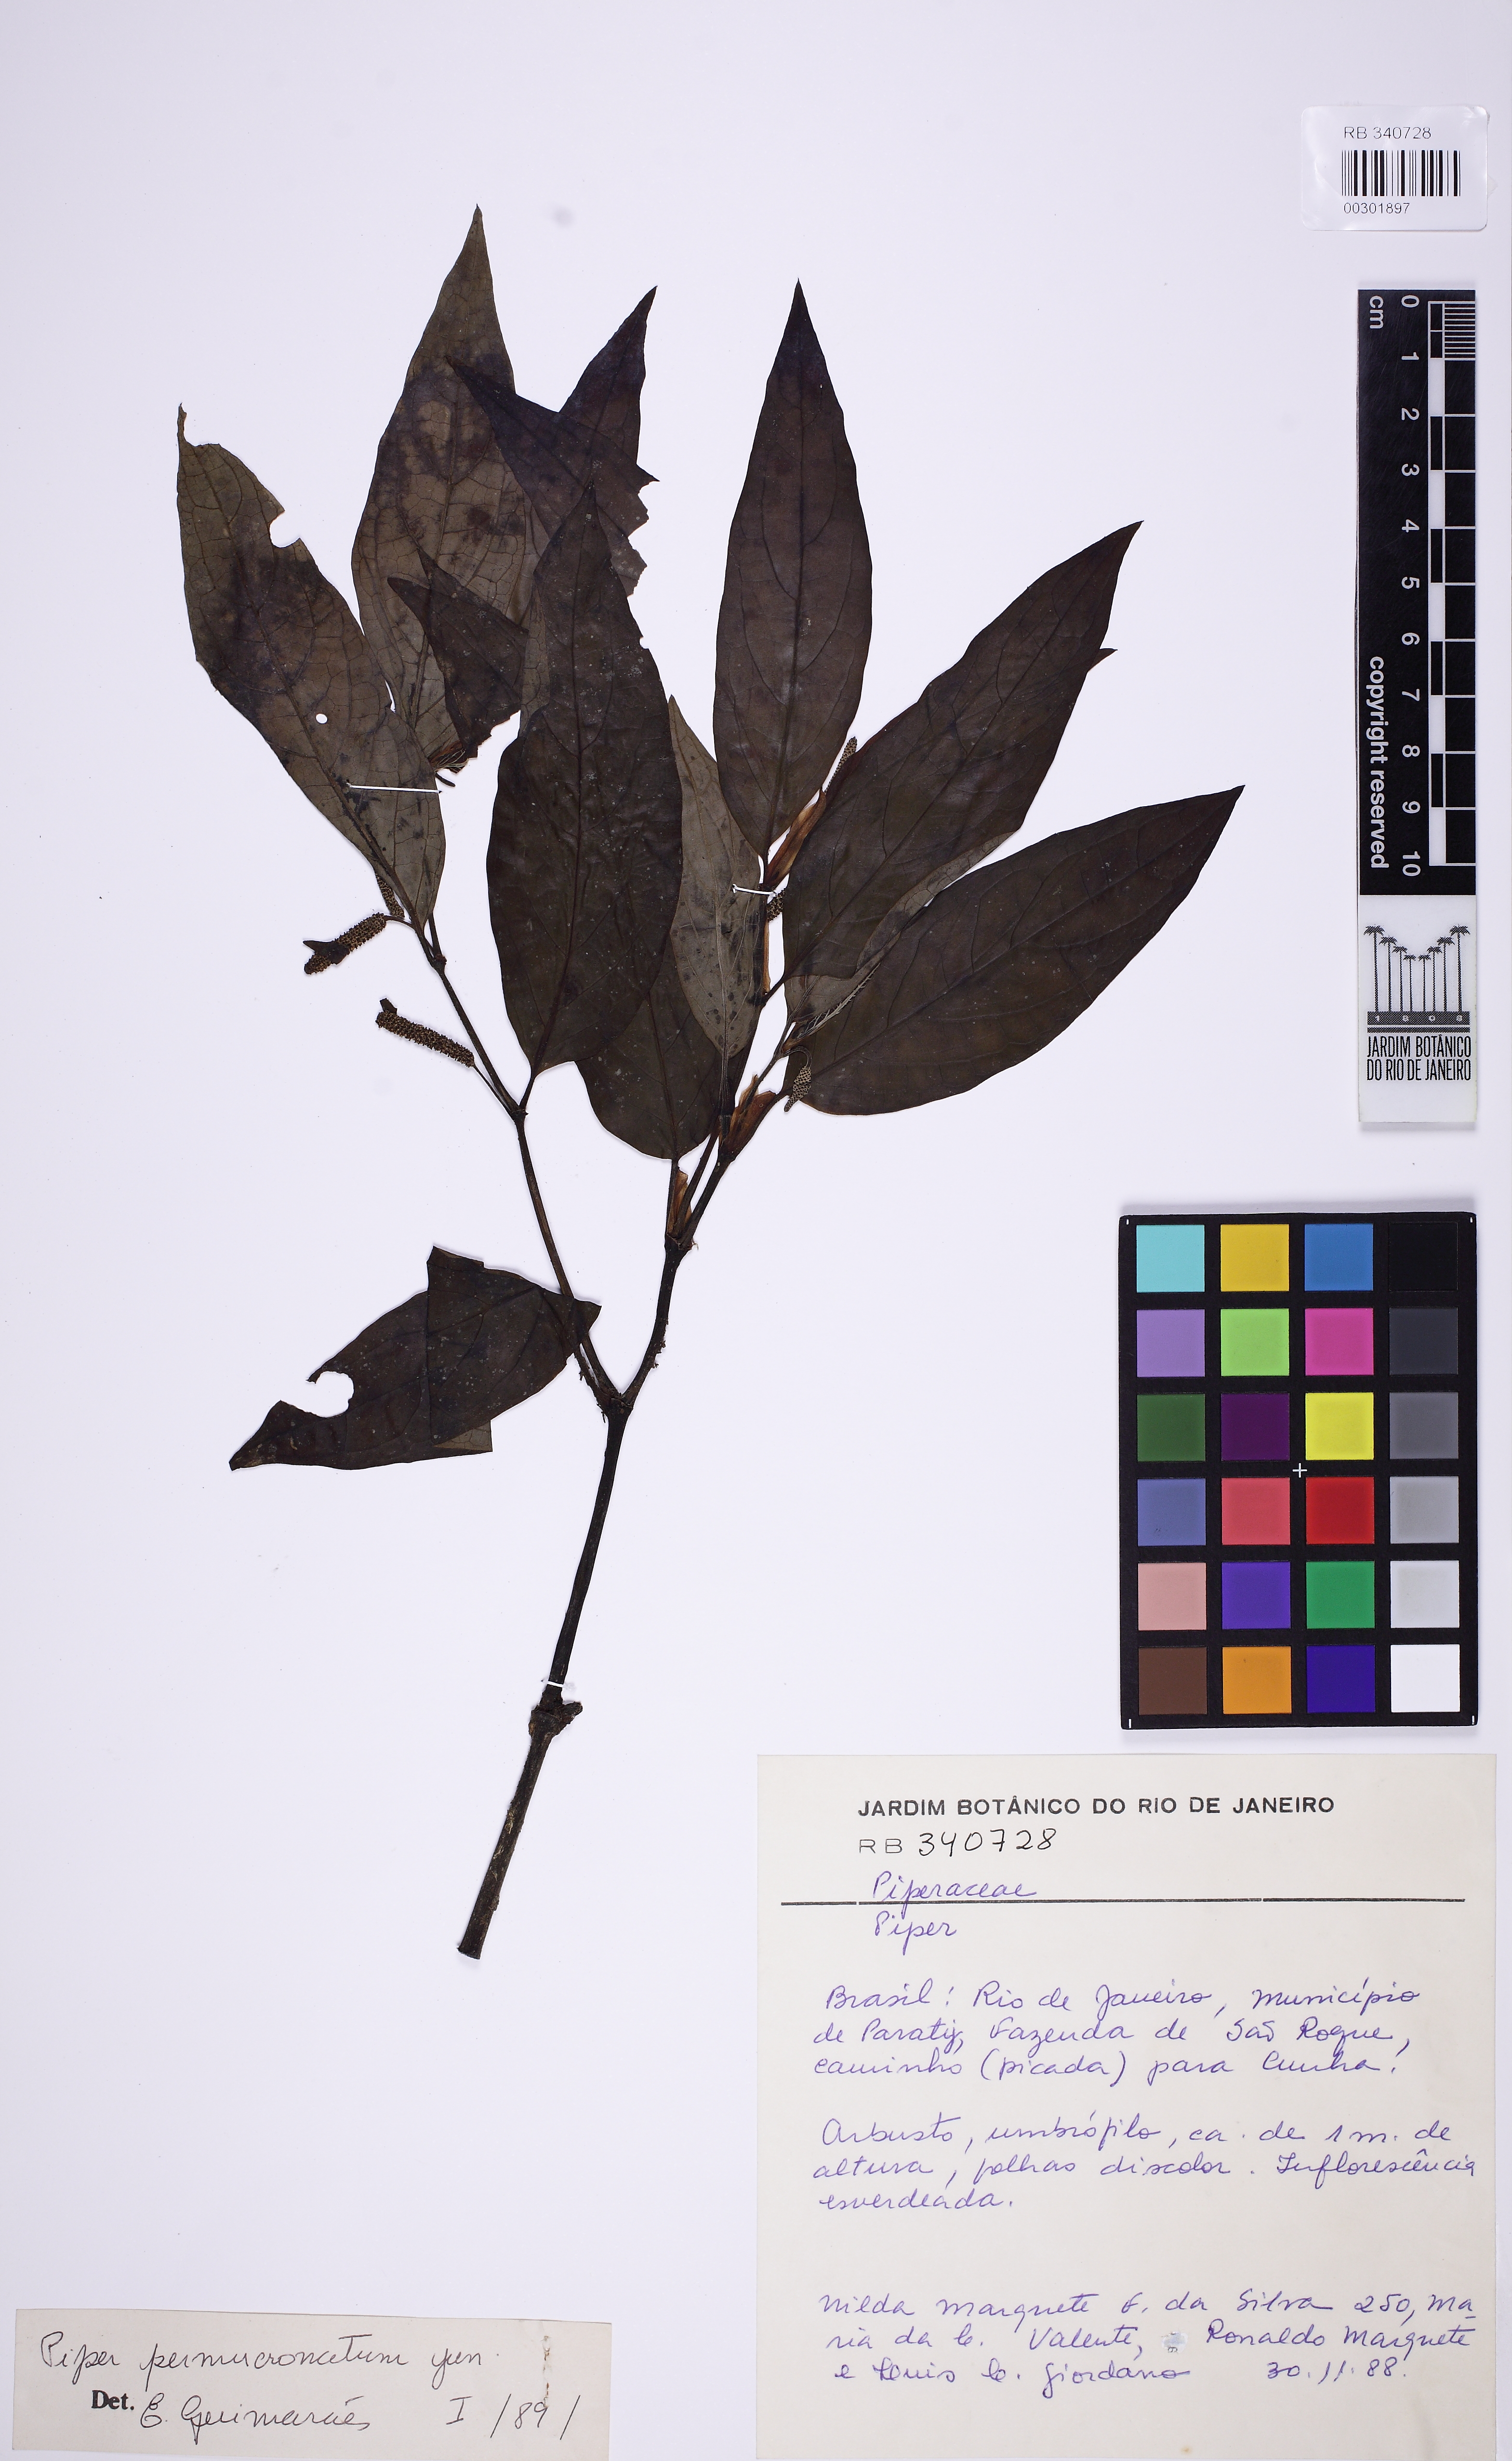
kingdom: Plantae
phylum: Tracheophyta
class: Magnoliopsida
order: Piperales
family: Piperaceae
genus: Piper
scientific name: Piper permucronatum
